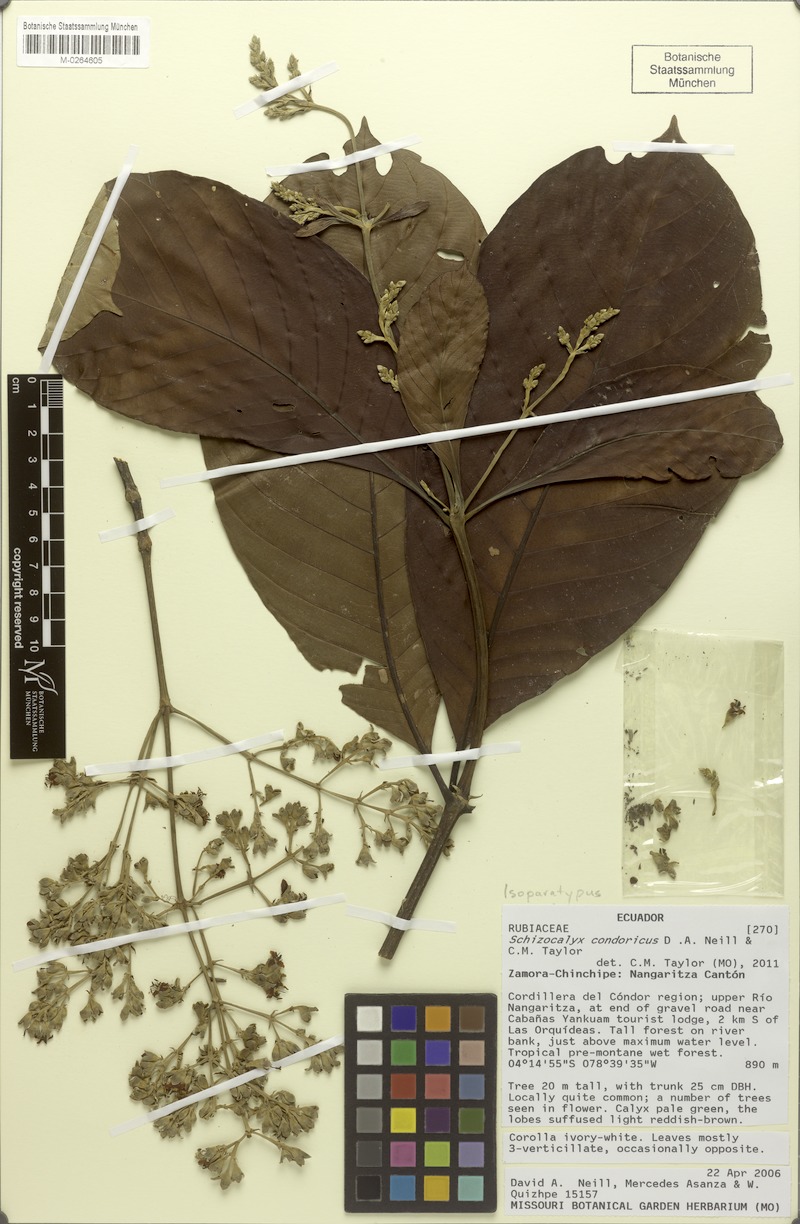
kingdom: Plantae
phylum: Tracheophyta
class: Magnoliopsida
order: Gentianales
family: Rubiaceae
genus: Schizocalyx
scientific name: Schizocalyx condoricus
